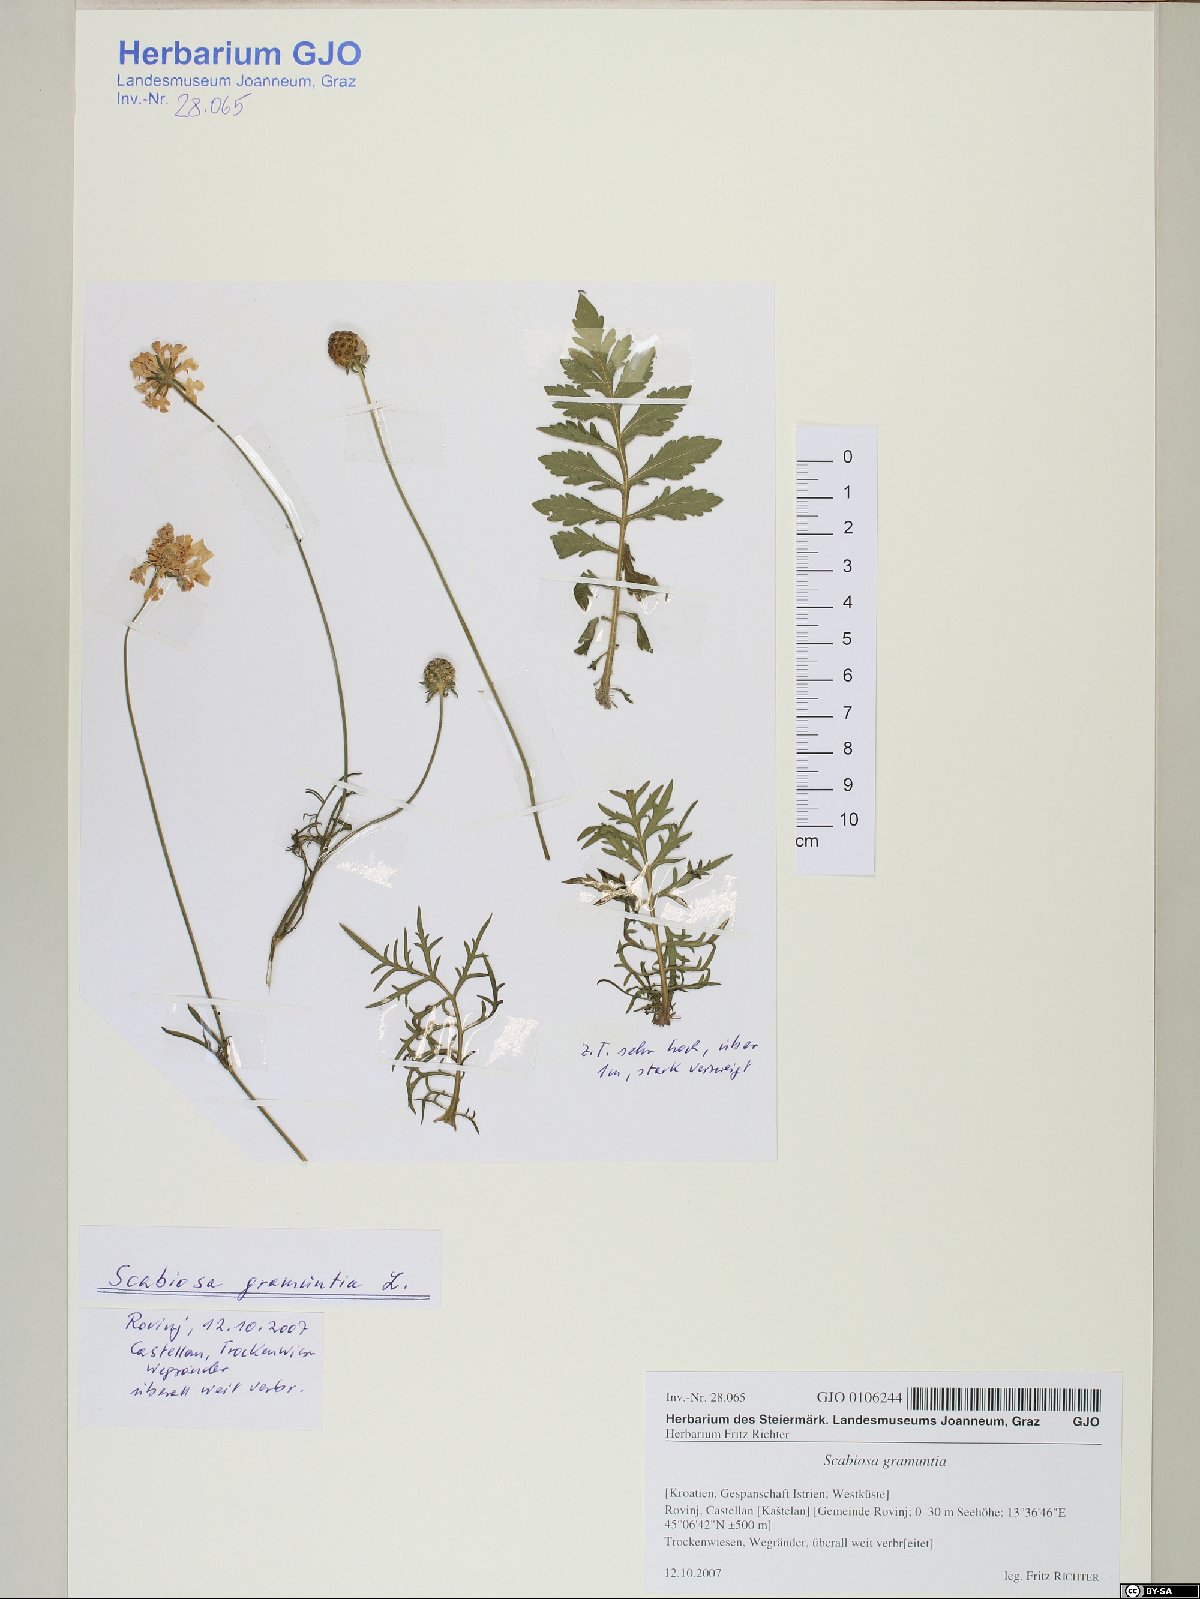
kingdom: Plantae
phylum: Tracheophyta
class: Magnoliopsida
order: Dipsacales
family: Caprifoliaceae
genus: Scabiosa
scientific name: Scabiosa triandra
